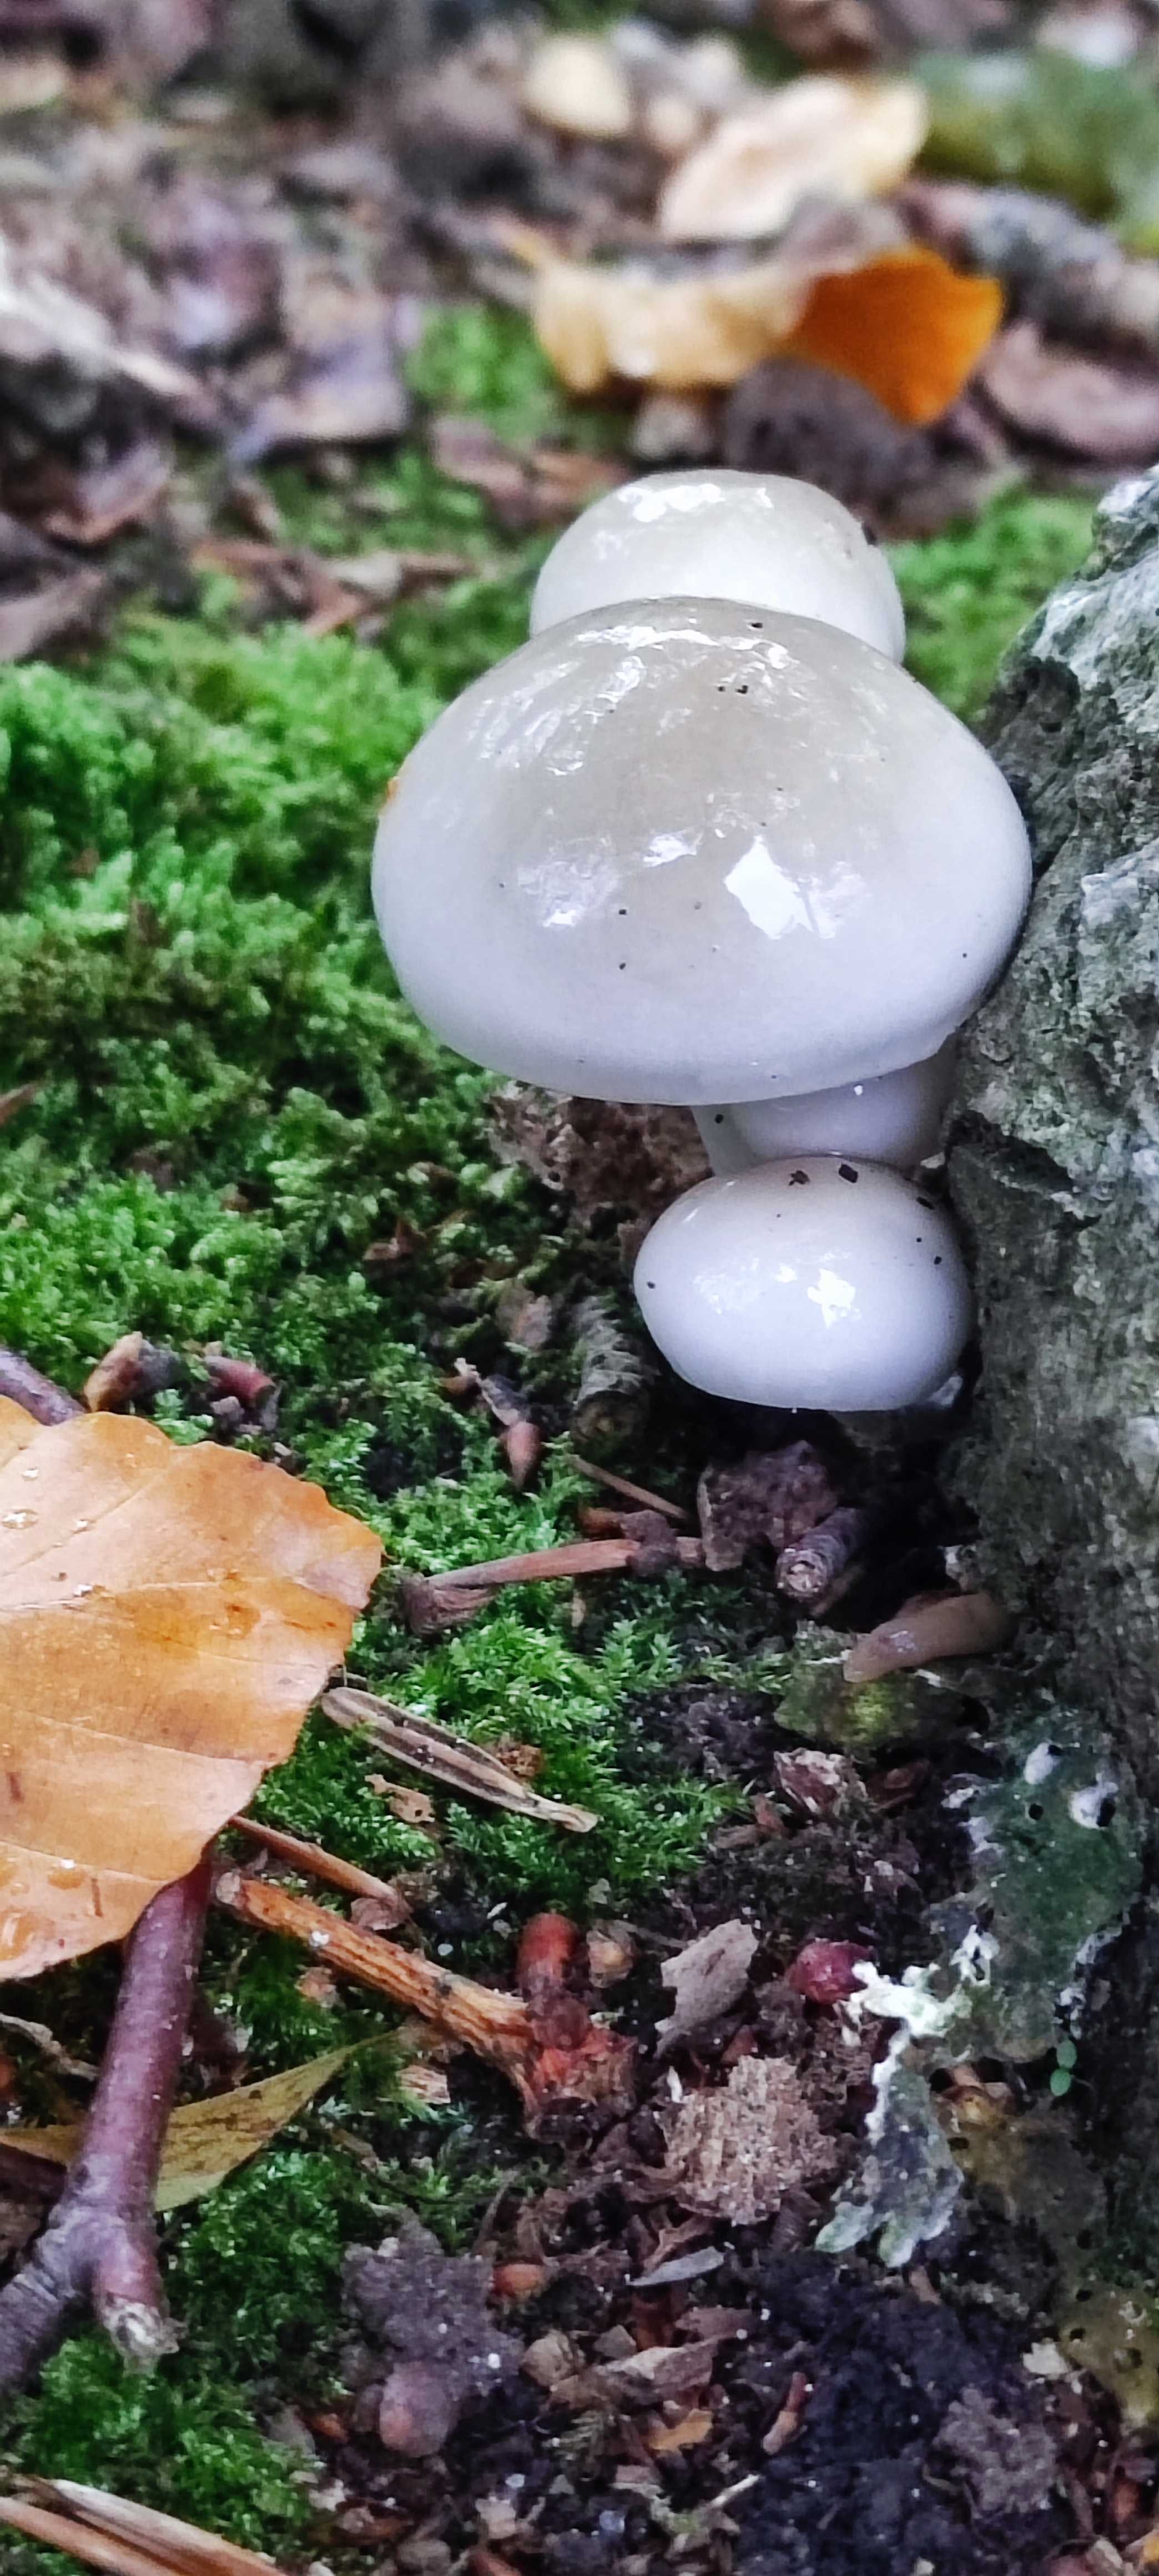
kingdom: Fungi
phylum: Basidiomycota
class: Agaricomycetes
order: Agaricales
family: Physalacriaceae
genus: Mucidula
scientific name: Mucidula mucida
